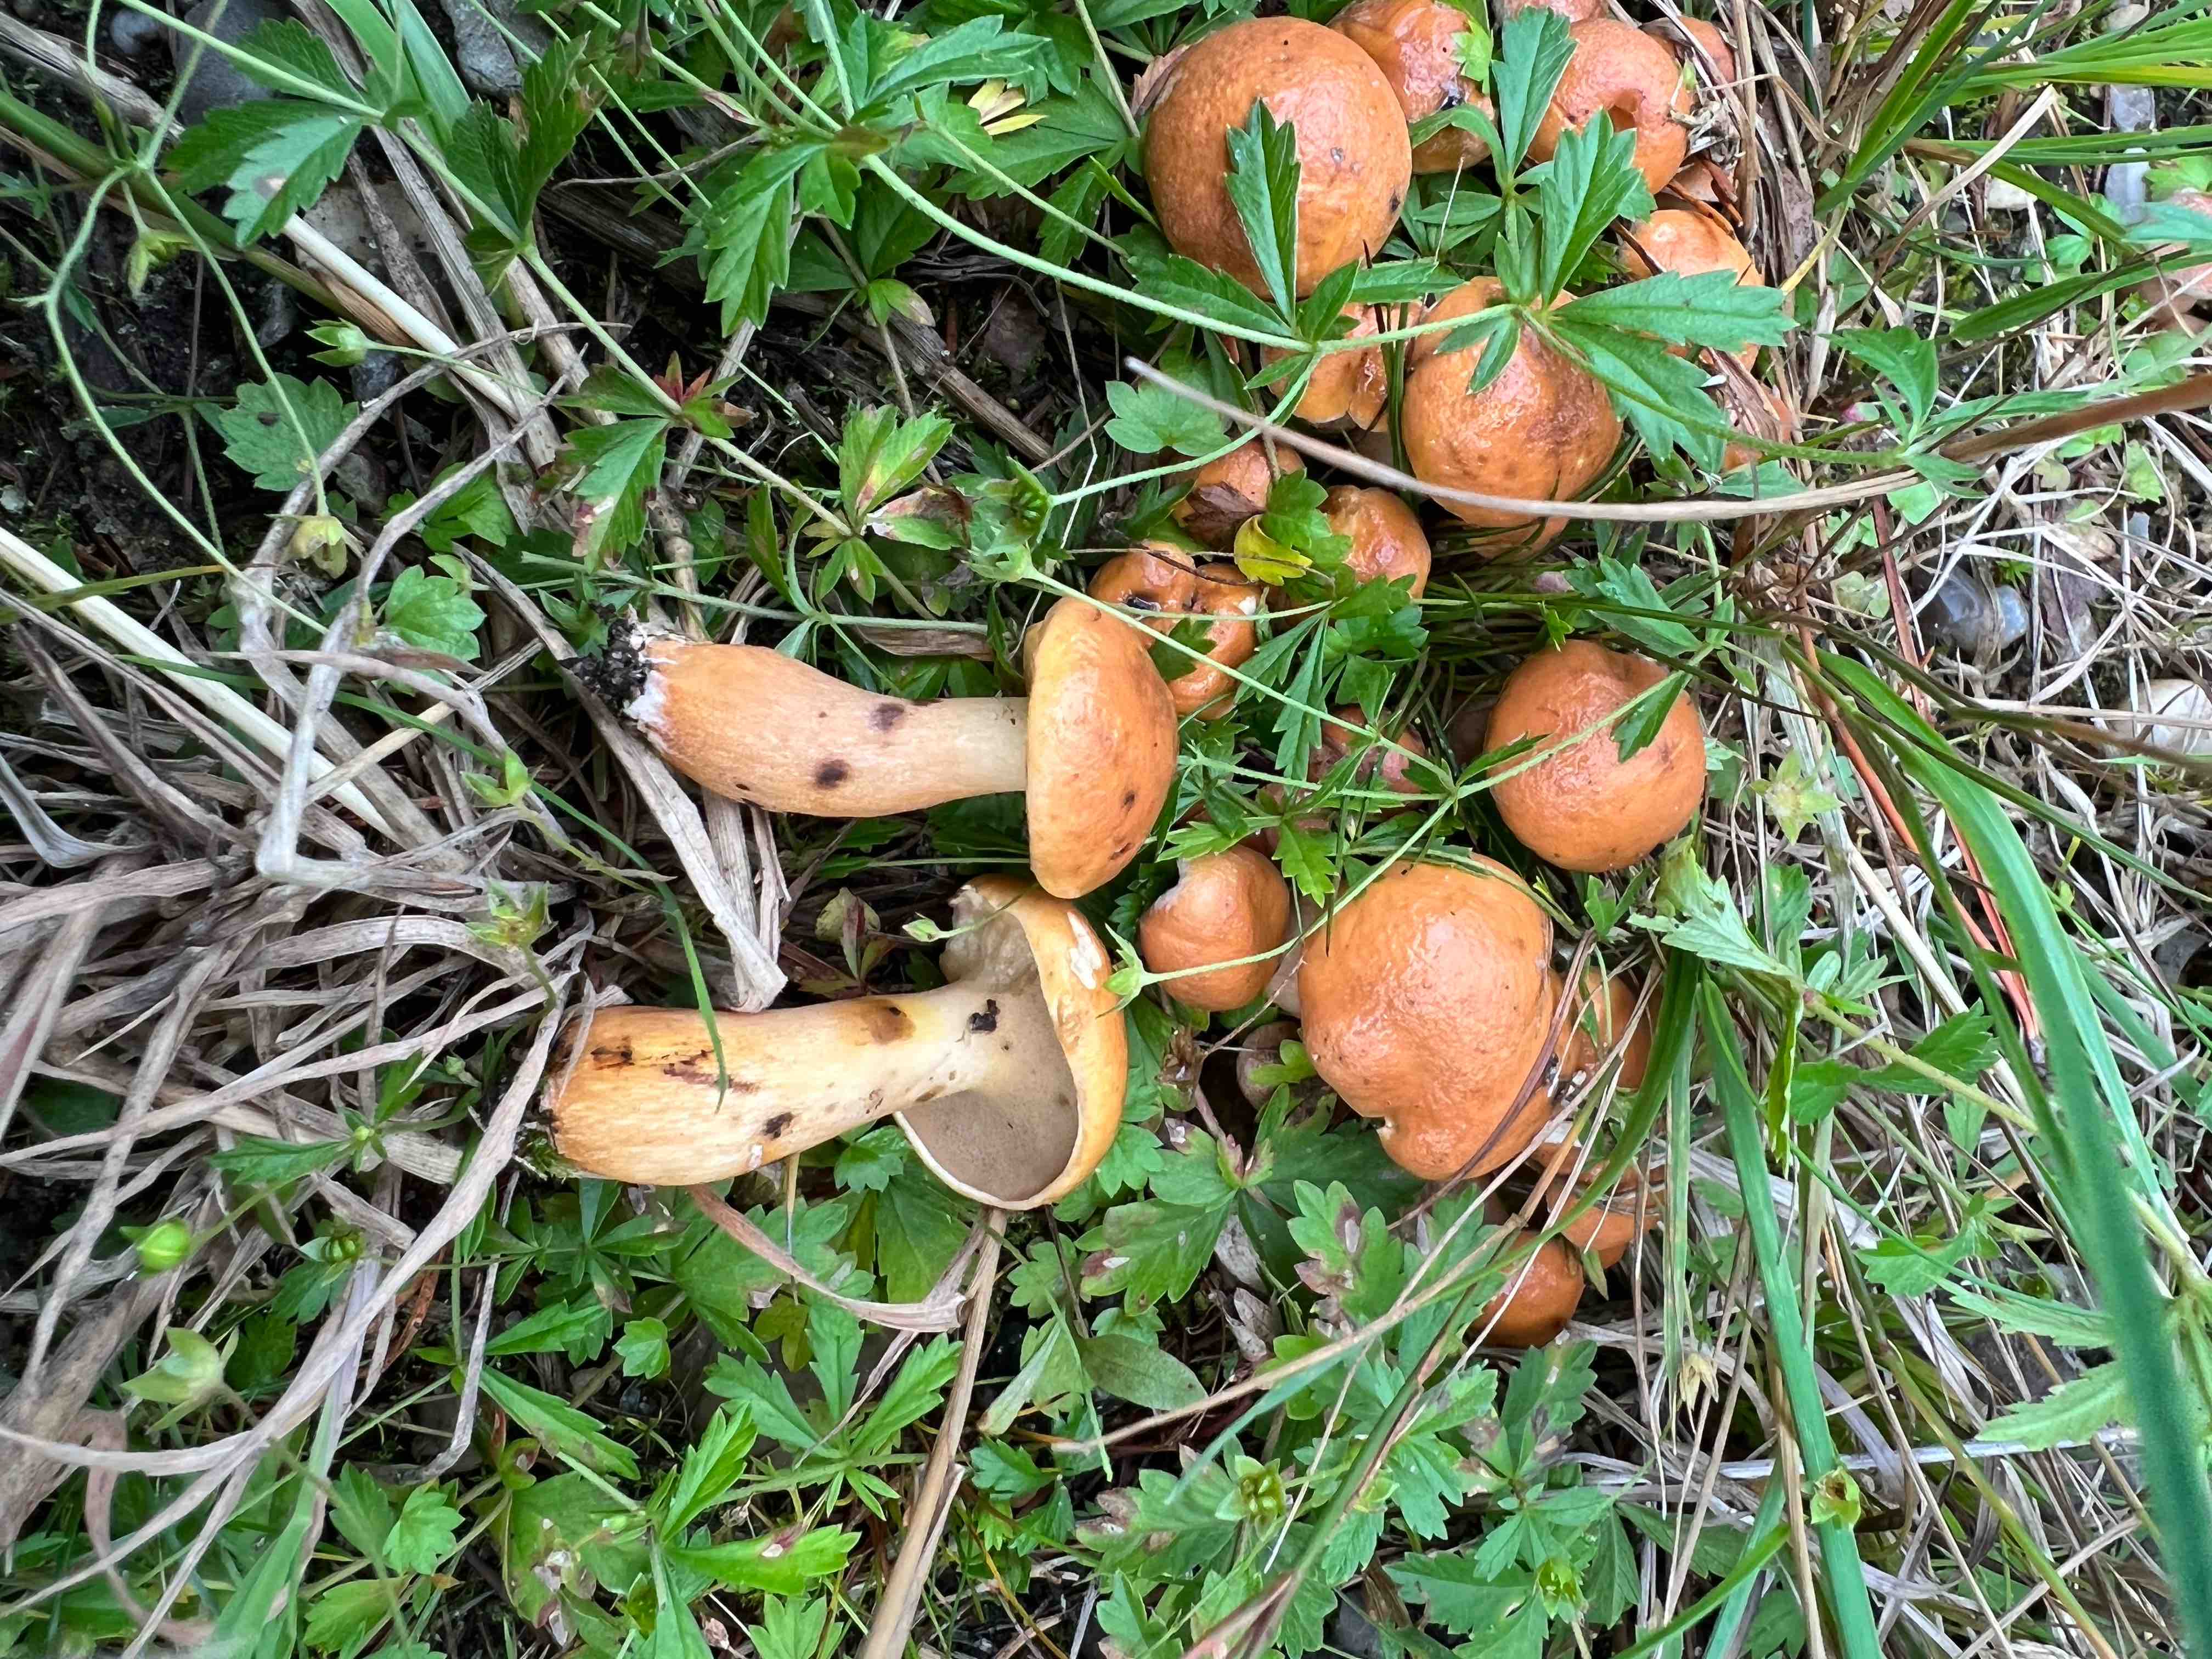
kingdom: Fungi
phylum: Basidiomycota
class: Agaricomycetes
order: Boletales
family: Suillaceae
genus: Suillus
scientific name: Suillus bovinus
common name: grovporet slimrørhat
